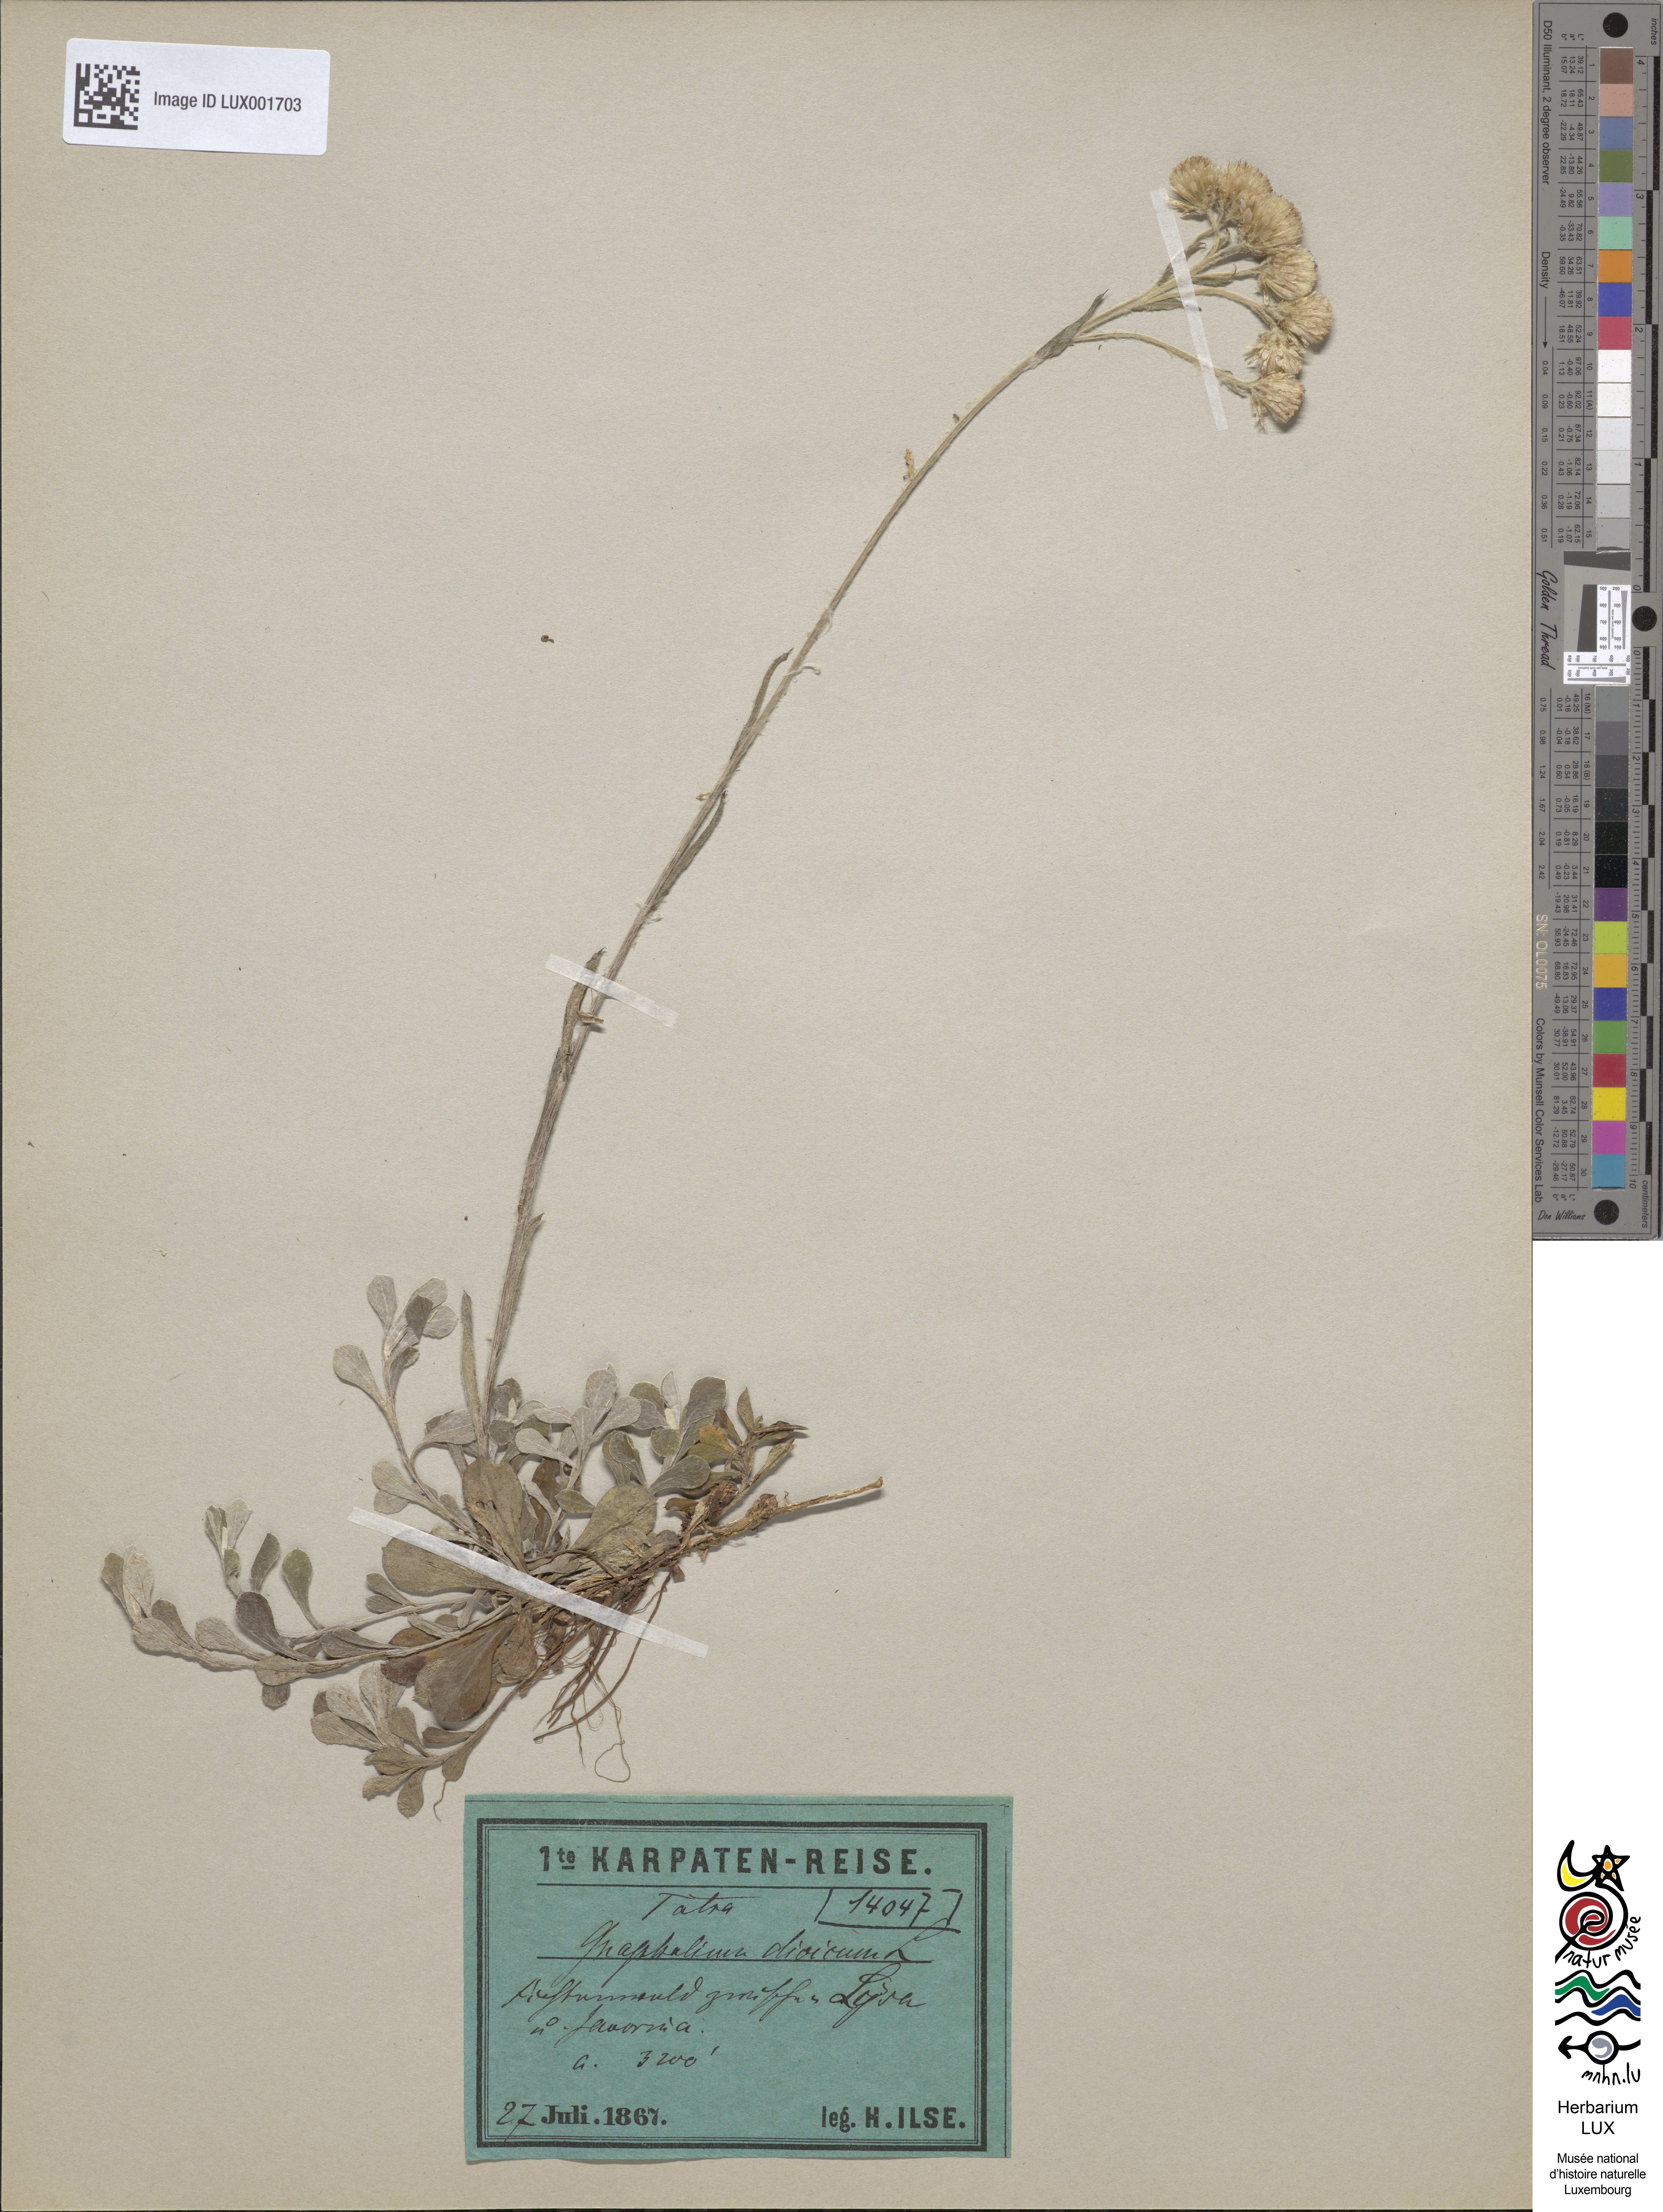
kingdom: Plantae
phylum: Tracheophyta
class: Magnoliopsida
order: Asterales
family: Asteraceae
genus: Antennaria
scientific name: Antennaria dioica
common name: Mountain everlasting
